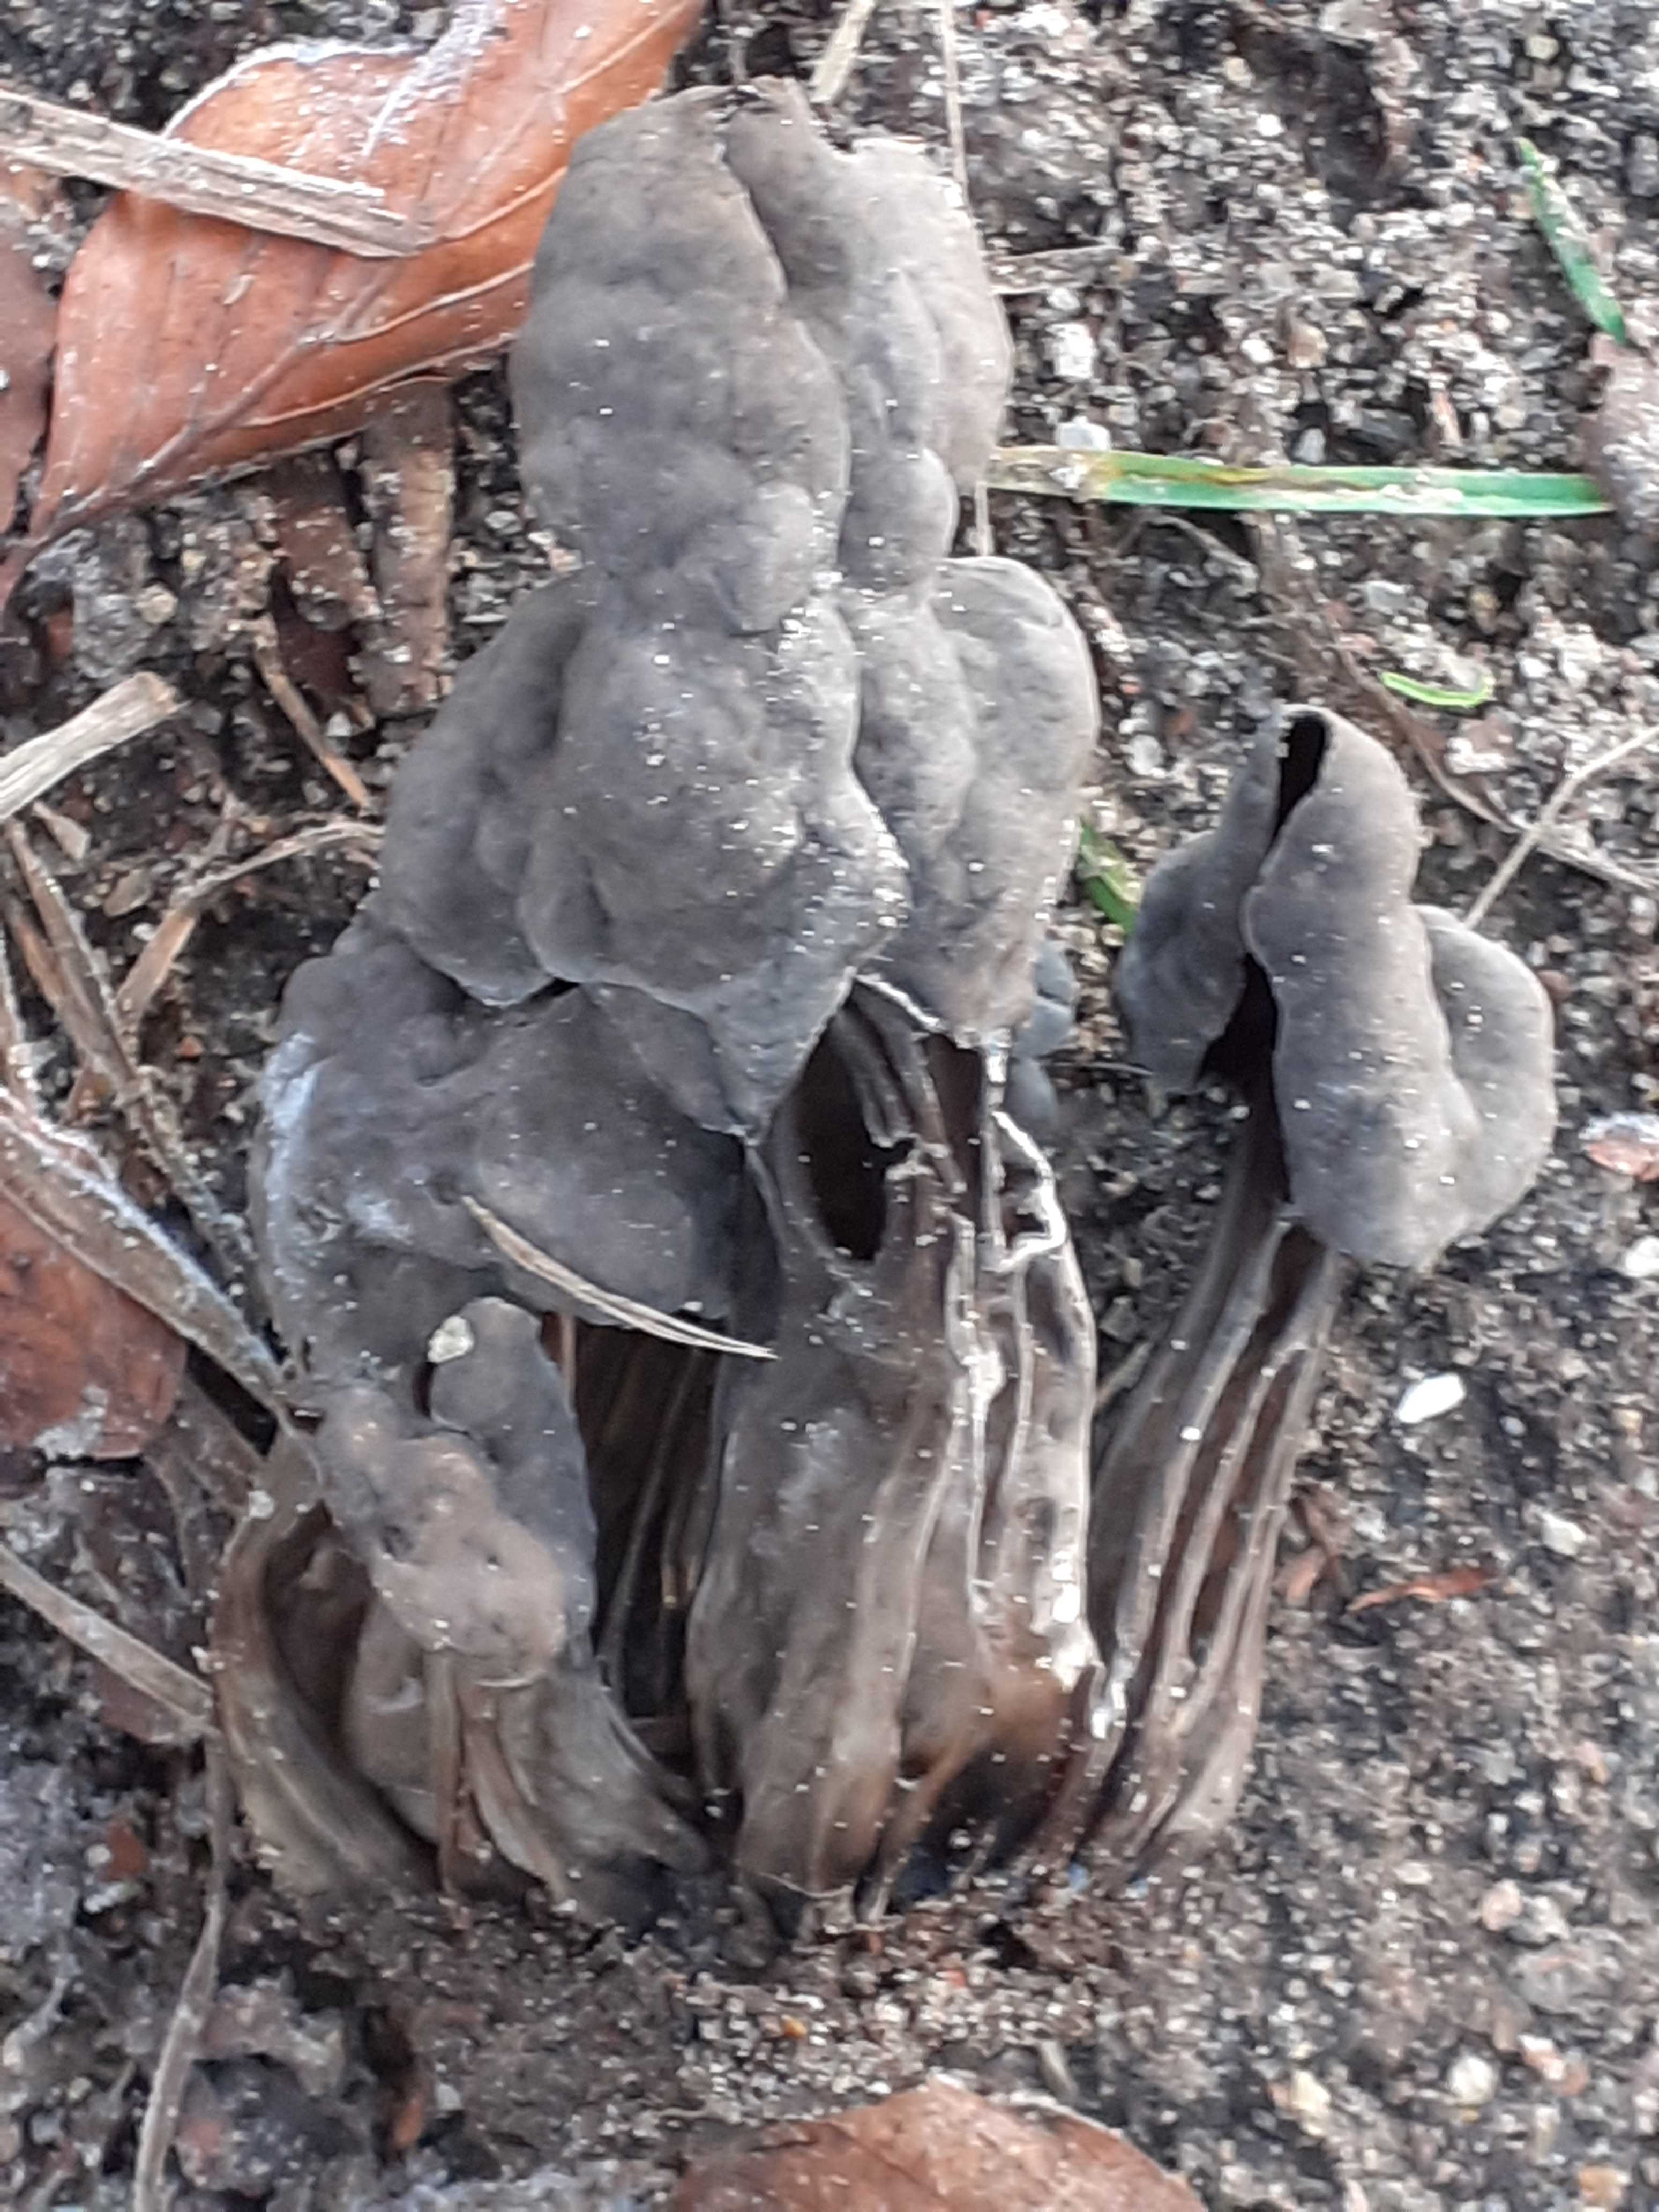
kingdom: Fungi
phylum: Ascomycota
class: Pezizomycetes
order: Pezizales
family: Helvellaceae
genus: Helvella
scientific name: Helvella lacunosa
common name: grubet foldhat
